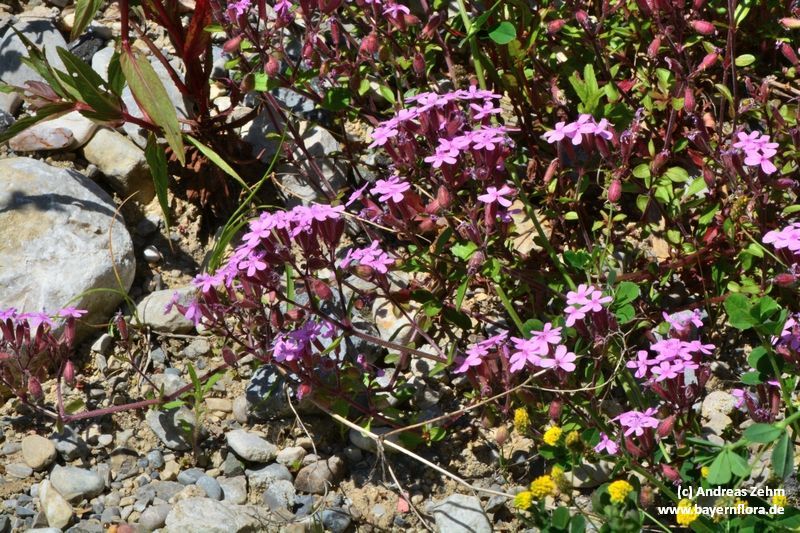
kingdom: Plantae
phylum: Tracheophyta
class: Magnoliopsida
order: Caryophyllales
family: Caryophyllaceae
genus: Saponaria
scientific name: Saponaria ocymoides
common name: Rock soapwort
